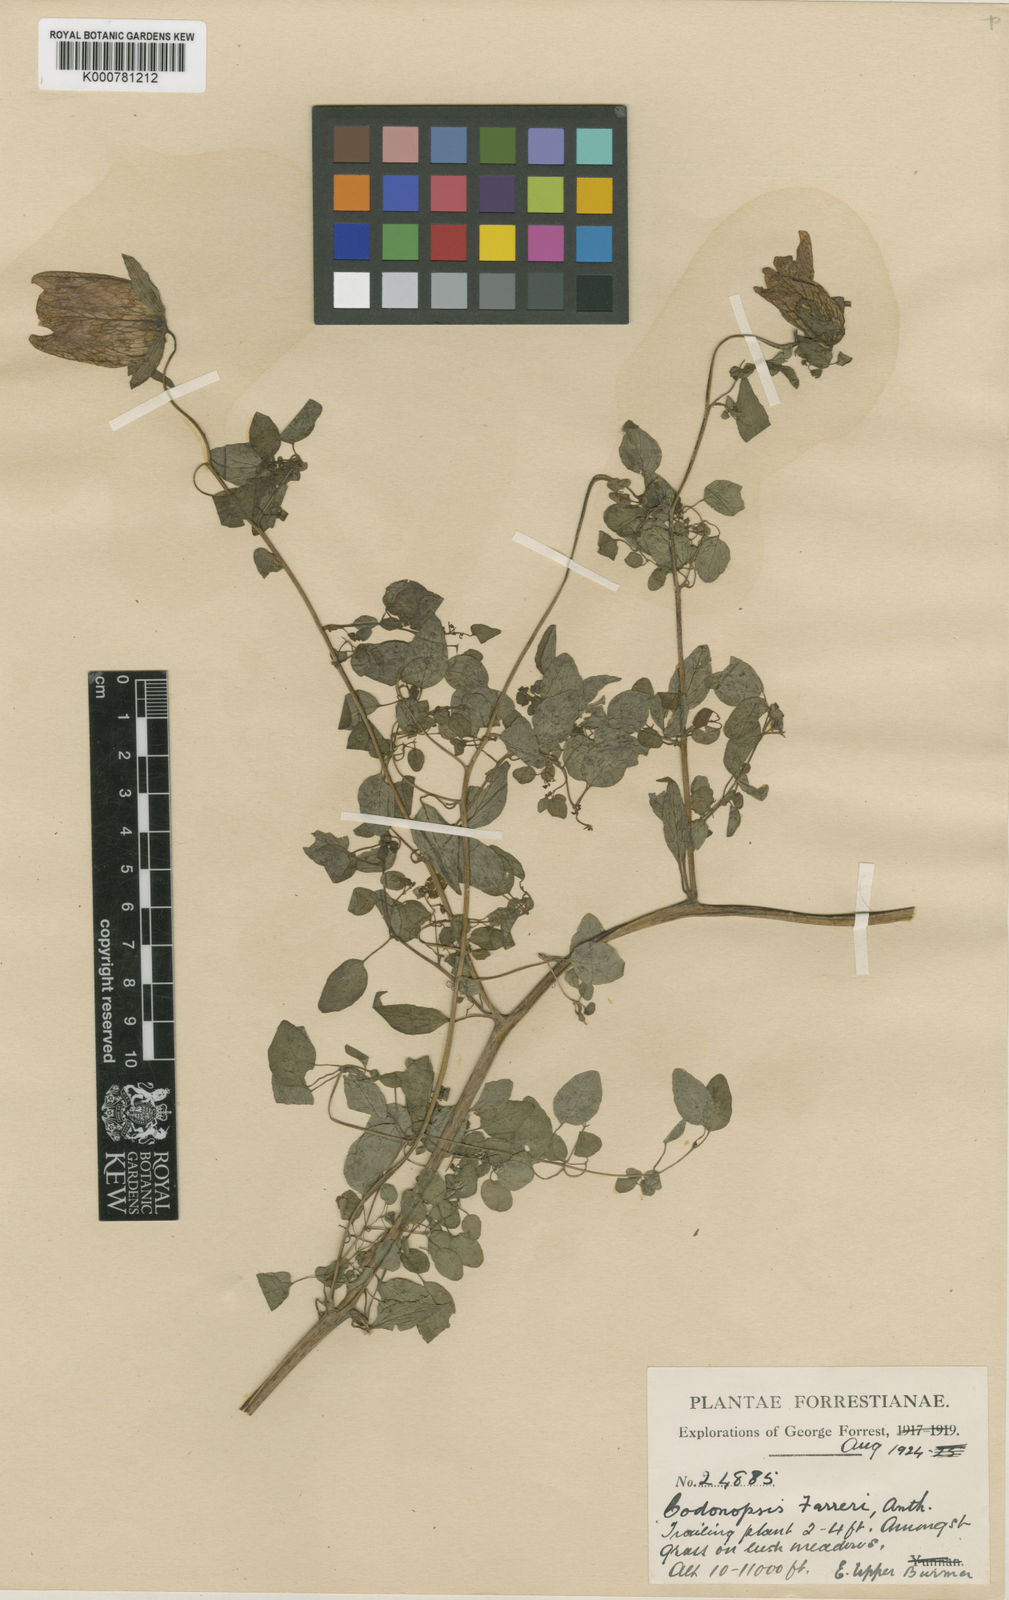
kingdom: Plantae
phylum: Tracheophyta
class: Magnoliopsida
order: Asterales
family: Campanulaceae
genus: Codonopsis
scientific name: Codonopsis farreri
